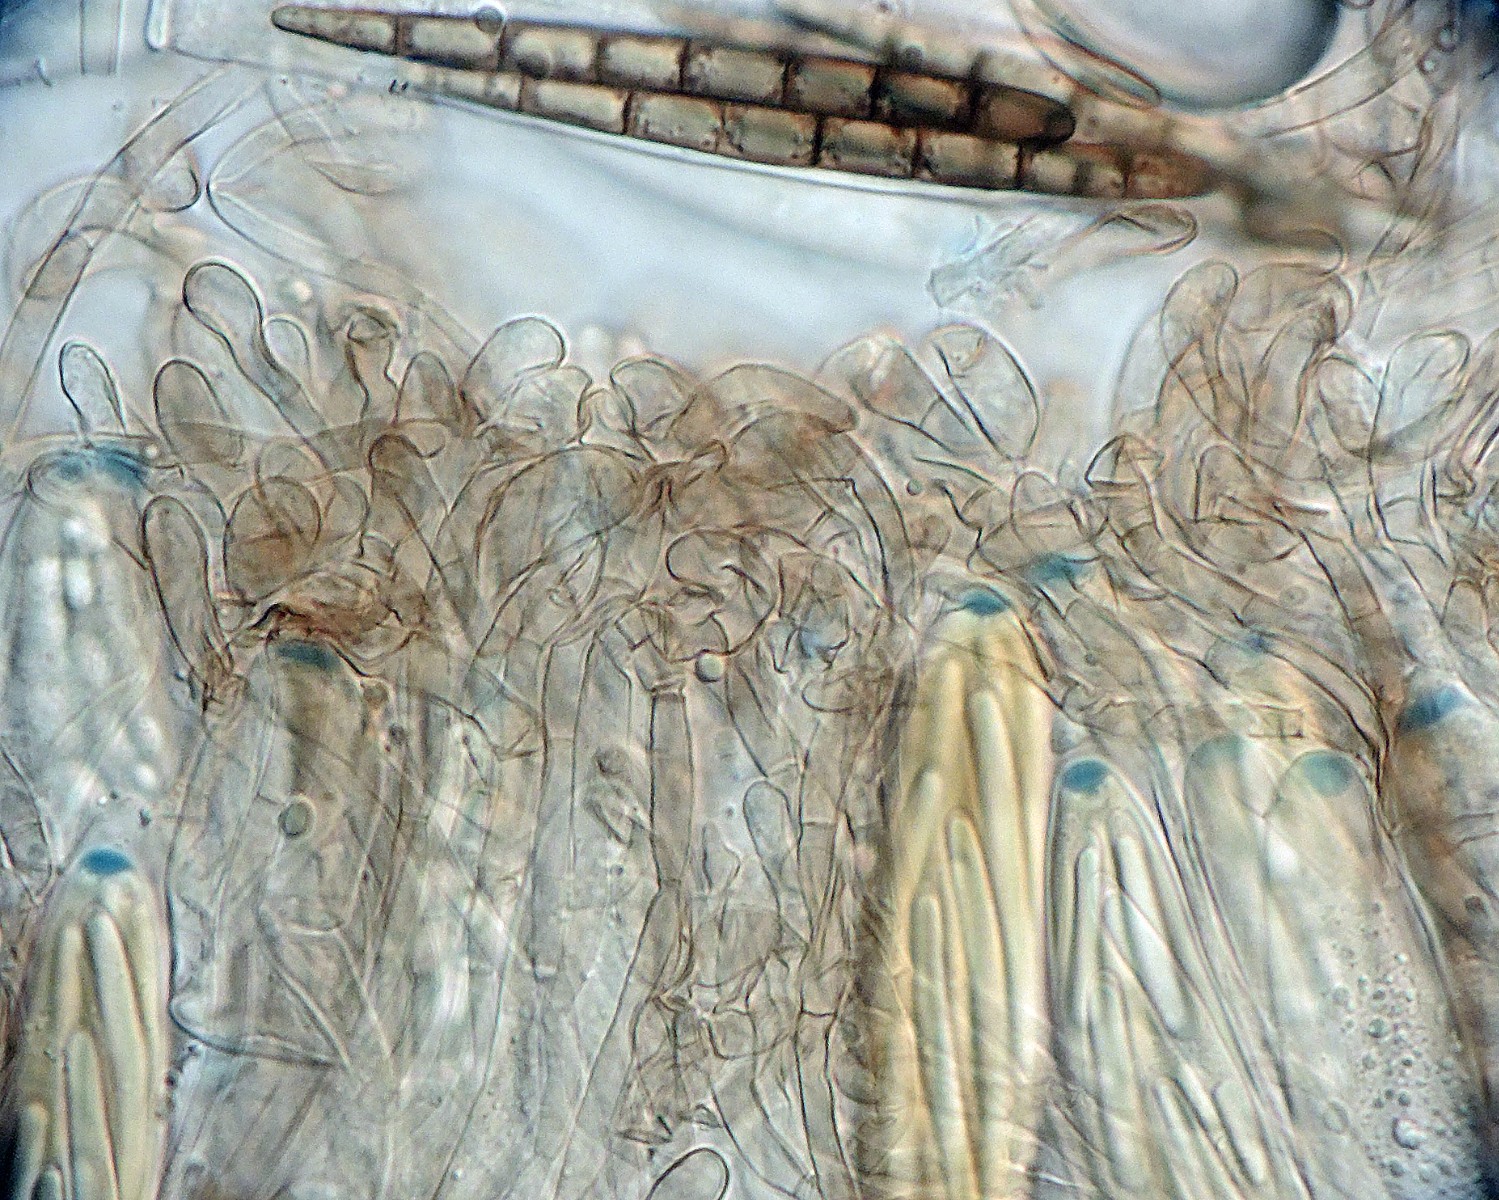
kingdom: Fungi
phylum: Ascomycota
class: Geoglossomycetes
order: Geoglossales
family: Geoglossaceae
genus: Geoglossum
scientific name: Geoglossum
